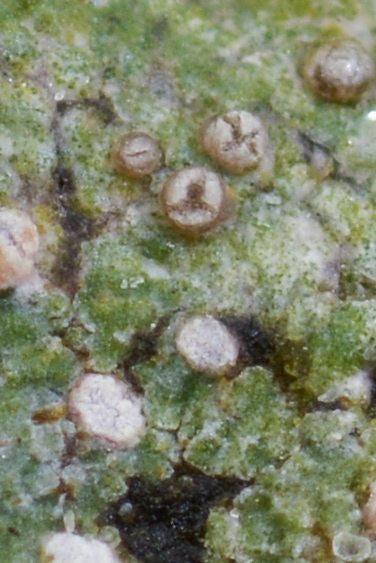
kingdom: Fungi
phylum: Ascomycota
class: Lecanoromycetes
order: Baeomycetales
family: Trapeliaceae
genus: Trapelia
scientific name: Trapelia coarctata
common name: hvidrandet brunskivelav
